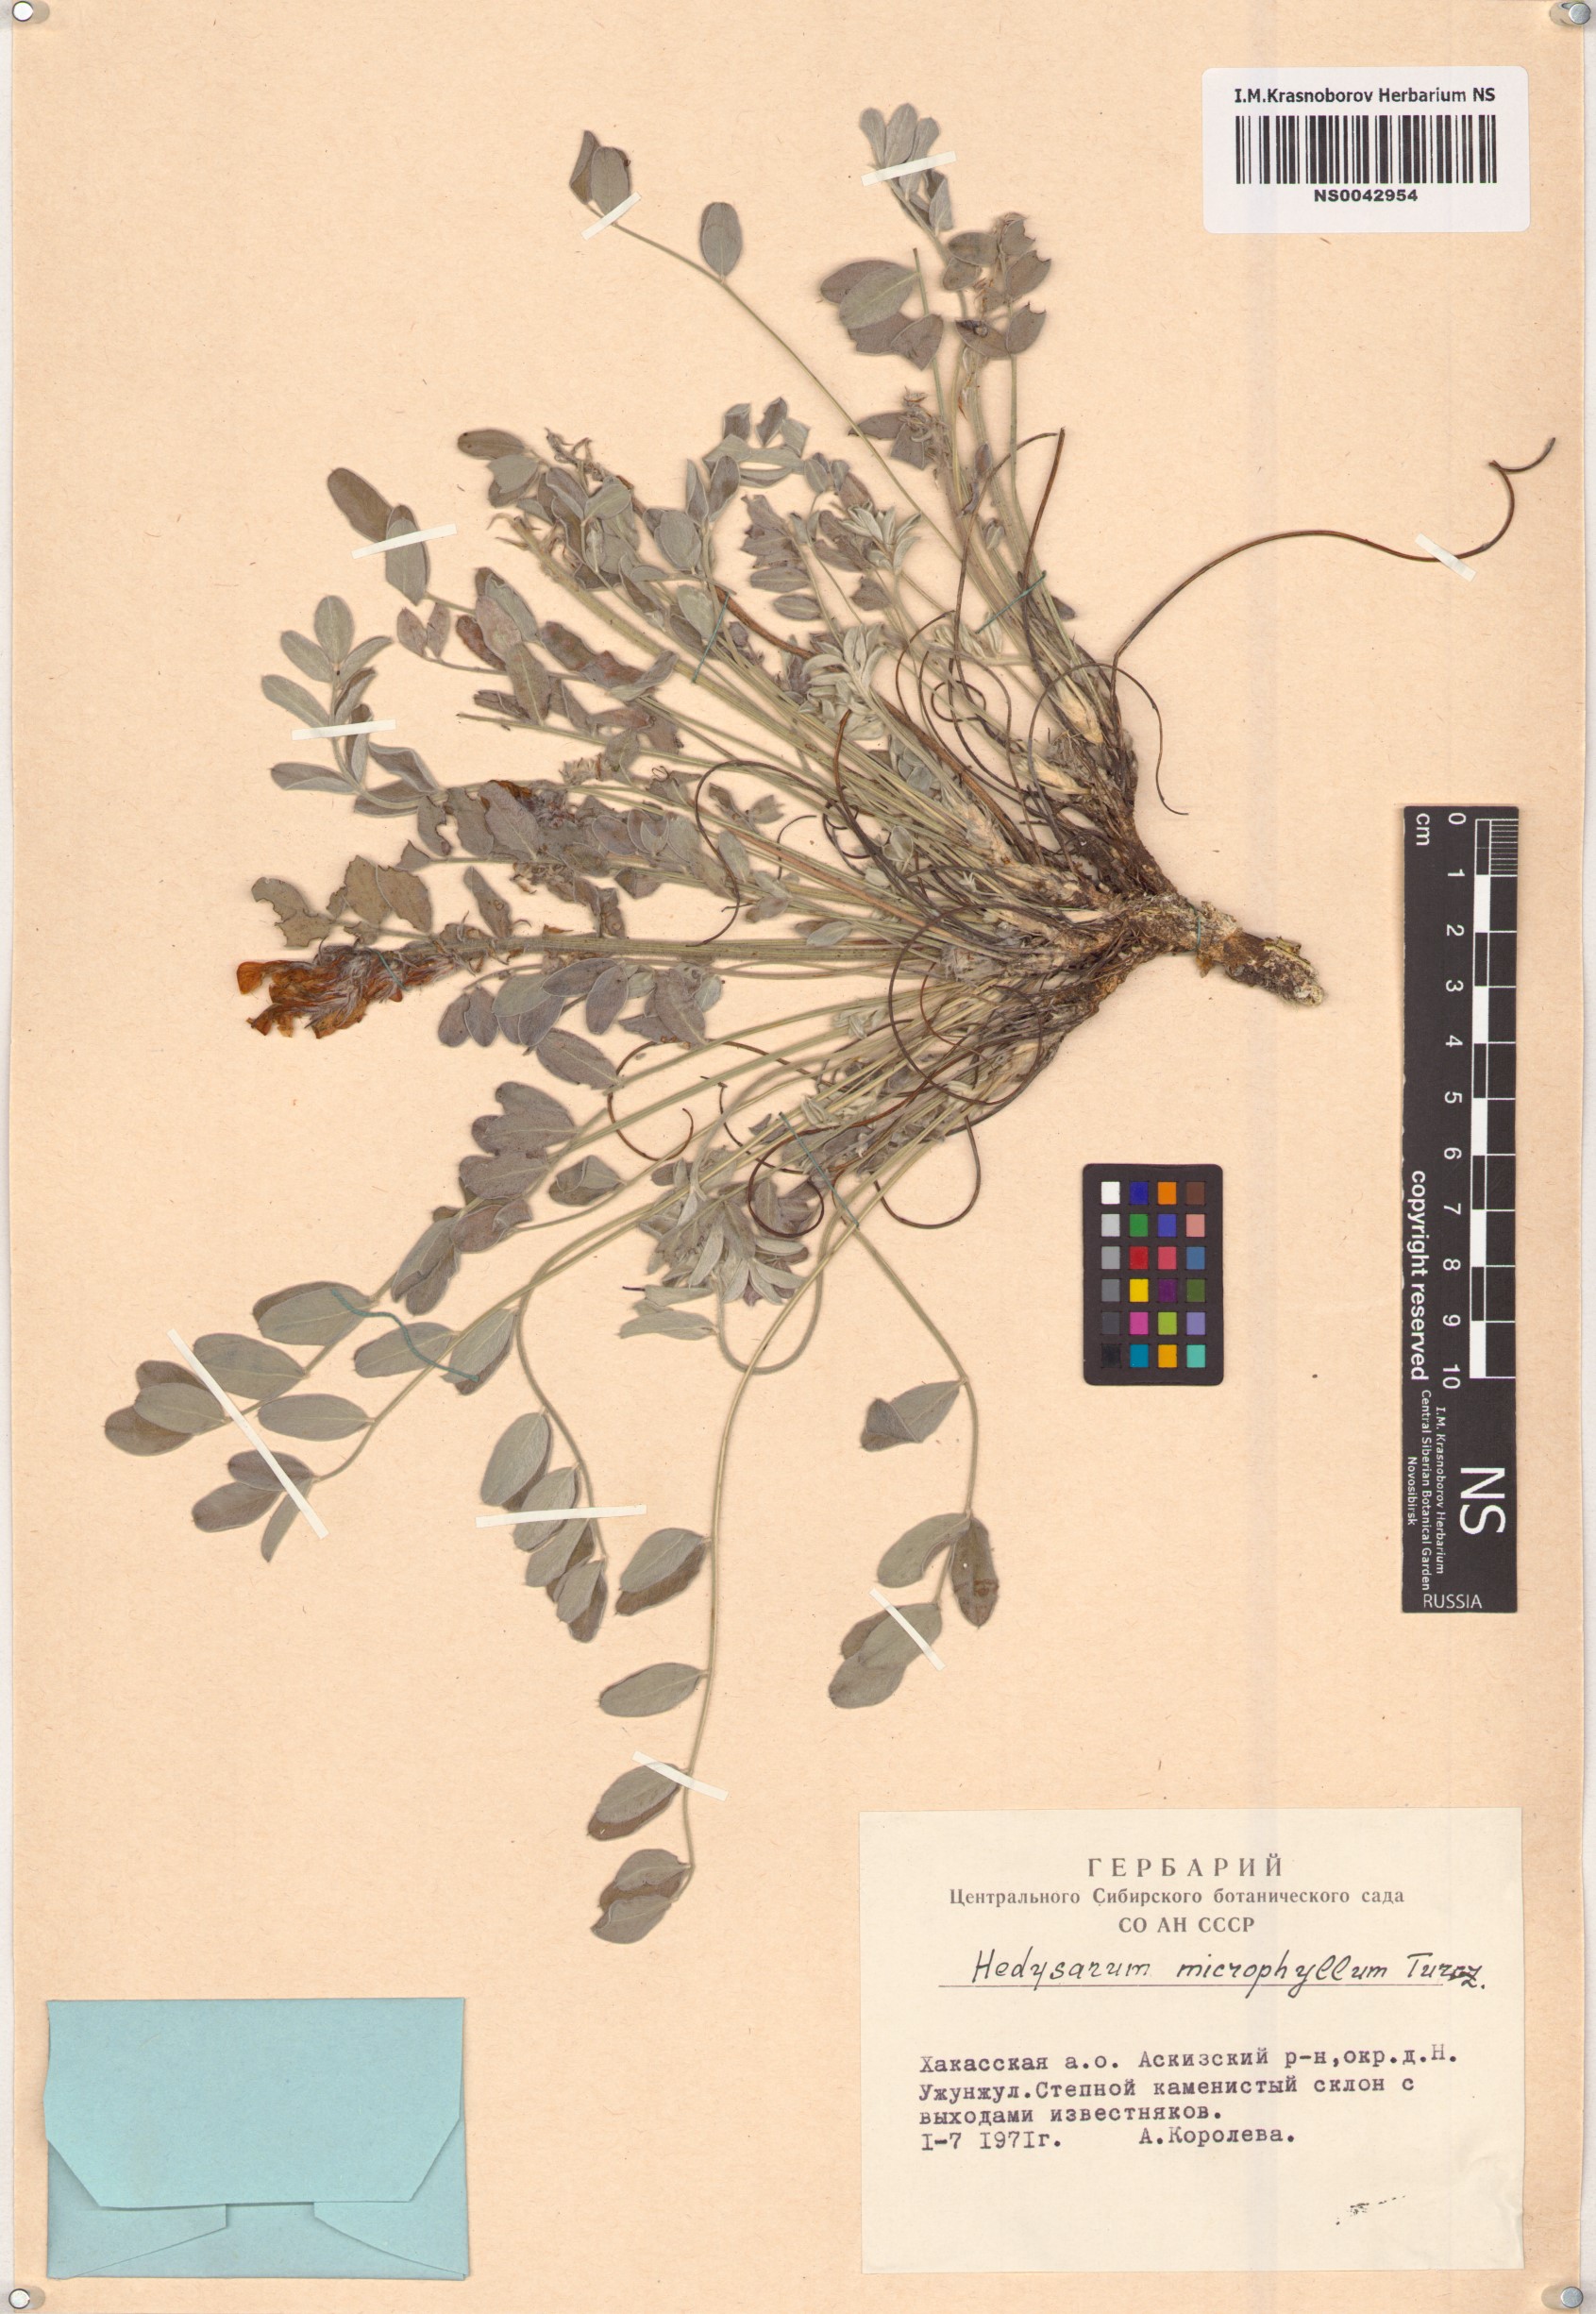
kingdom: Plantae
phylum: Tracheophyta
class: Magnoliopsida
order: Fabales
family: Fabaceae
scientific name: Fabaceae
